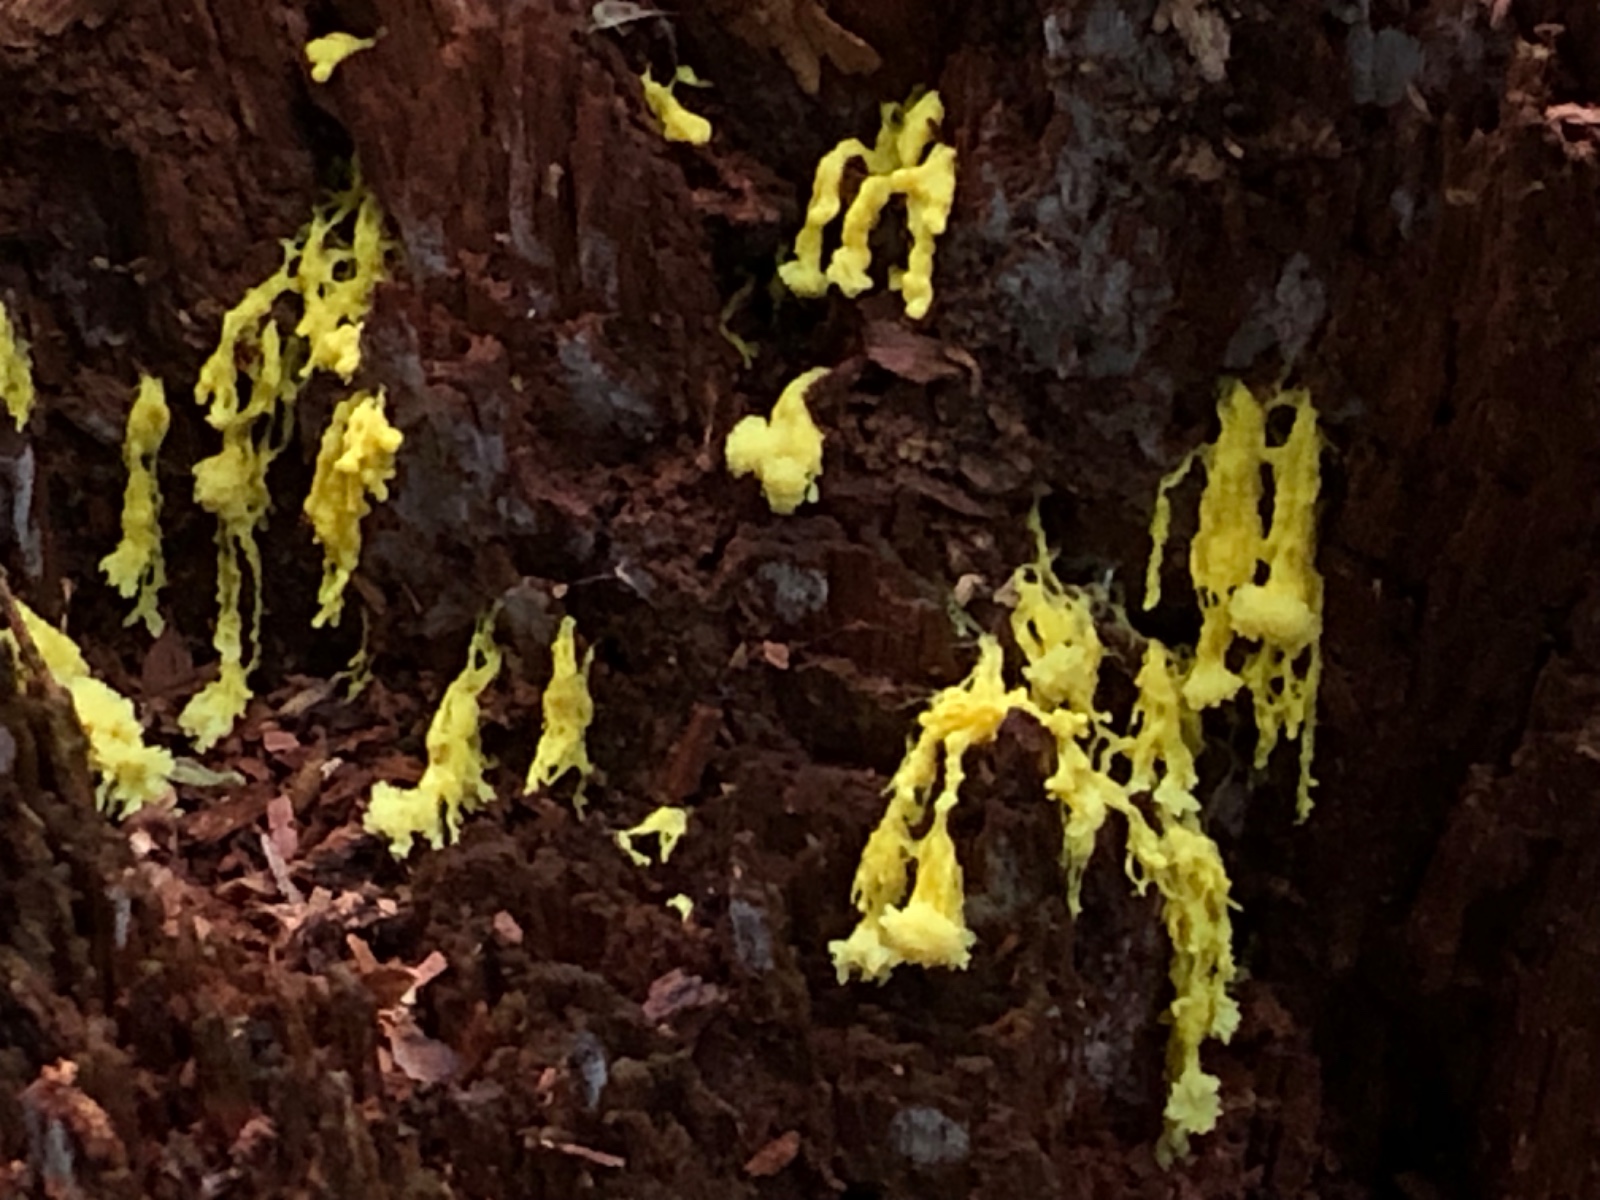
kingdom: Protozoa
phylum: Mycetozoa
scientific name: Mycetozoa
